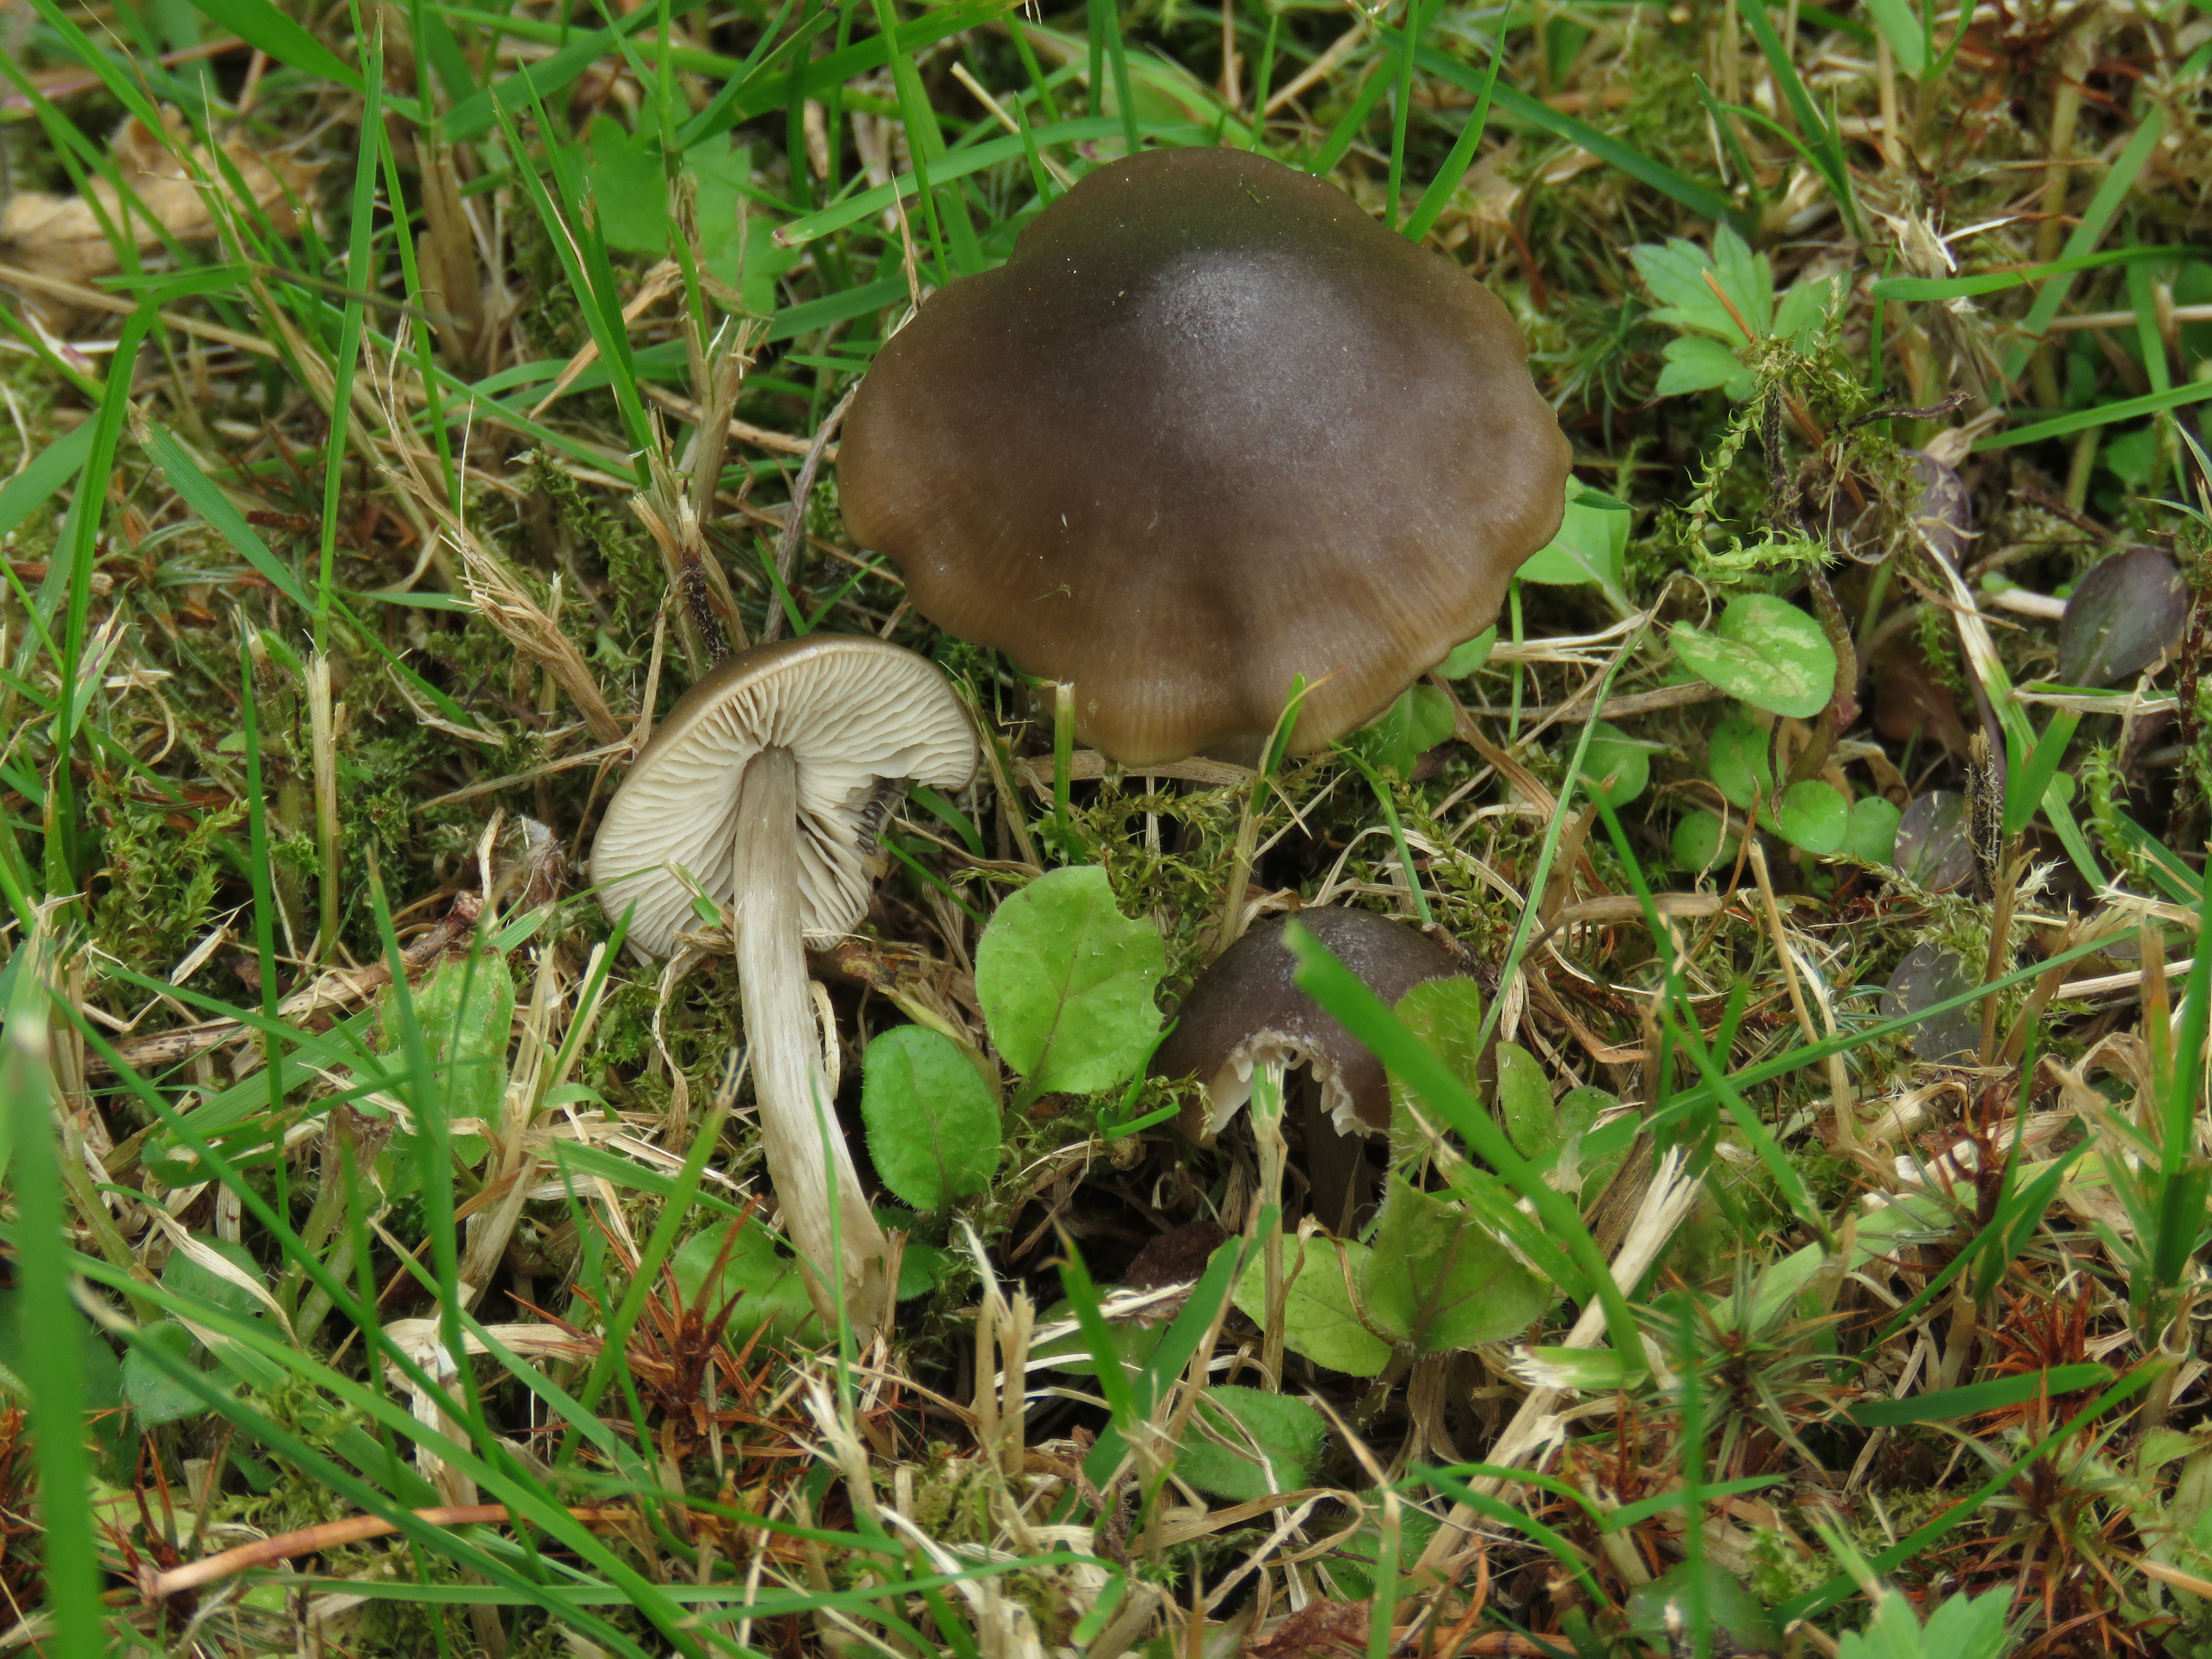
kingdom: Fungi
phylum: Basidiomycota
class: Agaricomycetes
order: Agaricales
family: Entolomataceae
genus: Entoloma
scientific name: Entoloma conferendum
